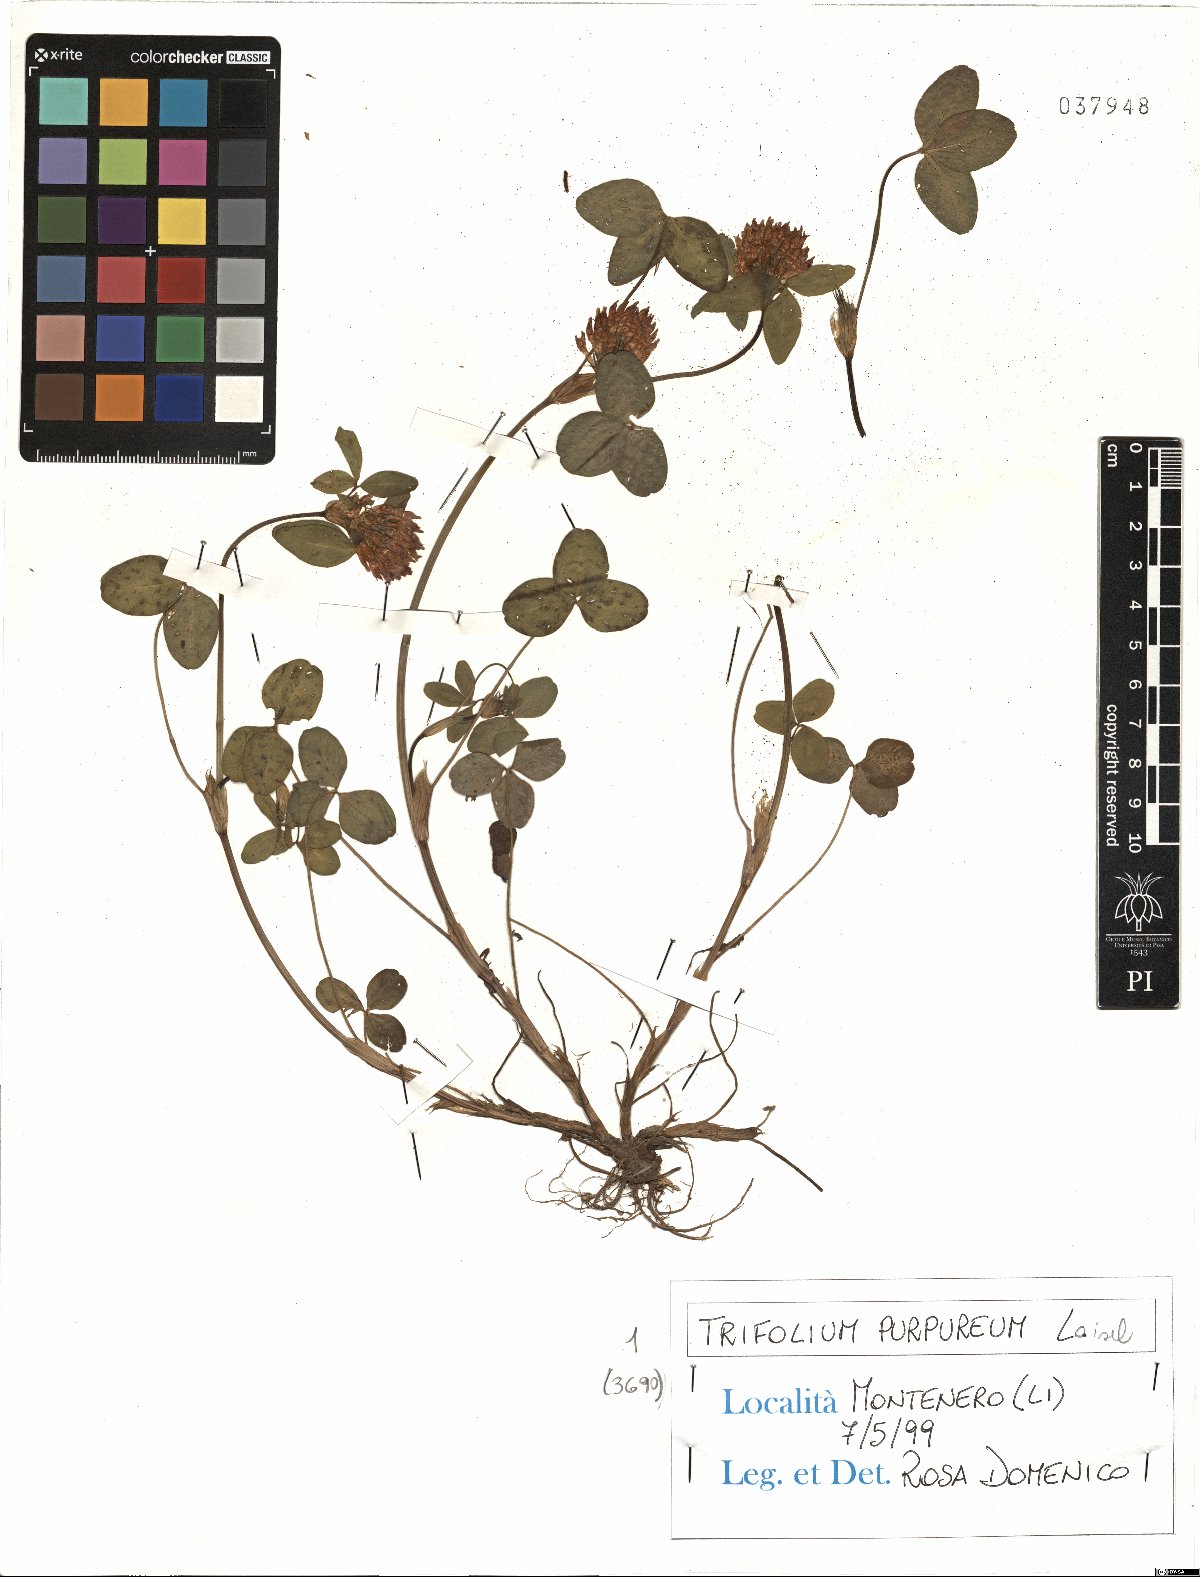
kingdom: Plantae
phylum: Tracheophyta
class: Magnoliopsida
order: Fabales
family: Fabaceae
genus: Trifolium
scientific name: Trifolium pratense
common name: Red clover
